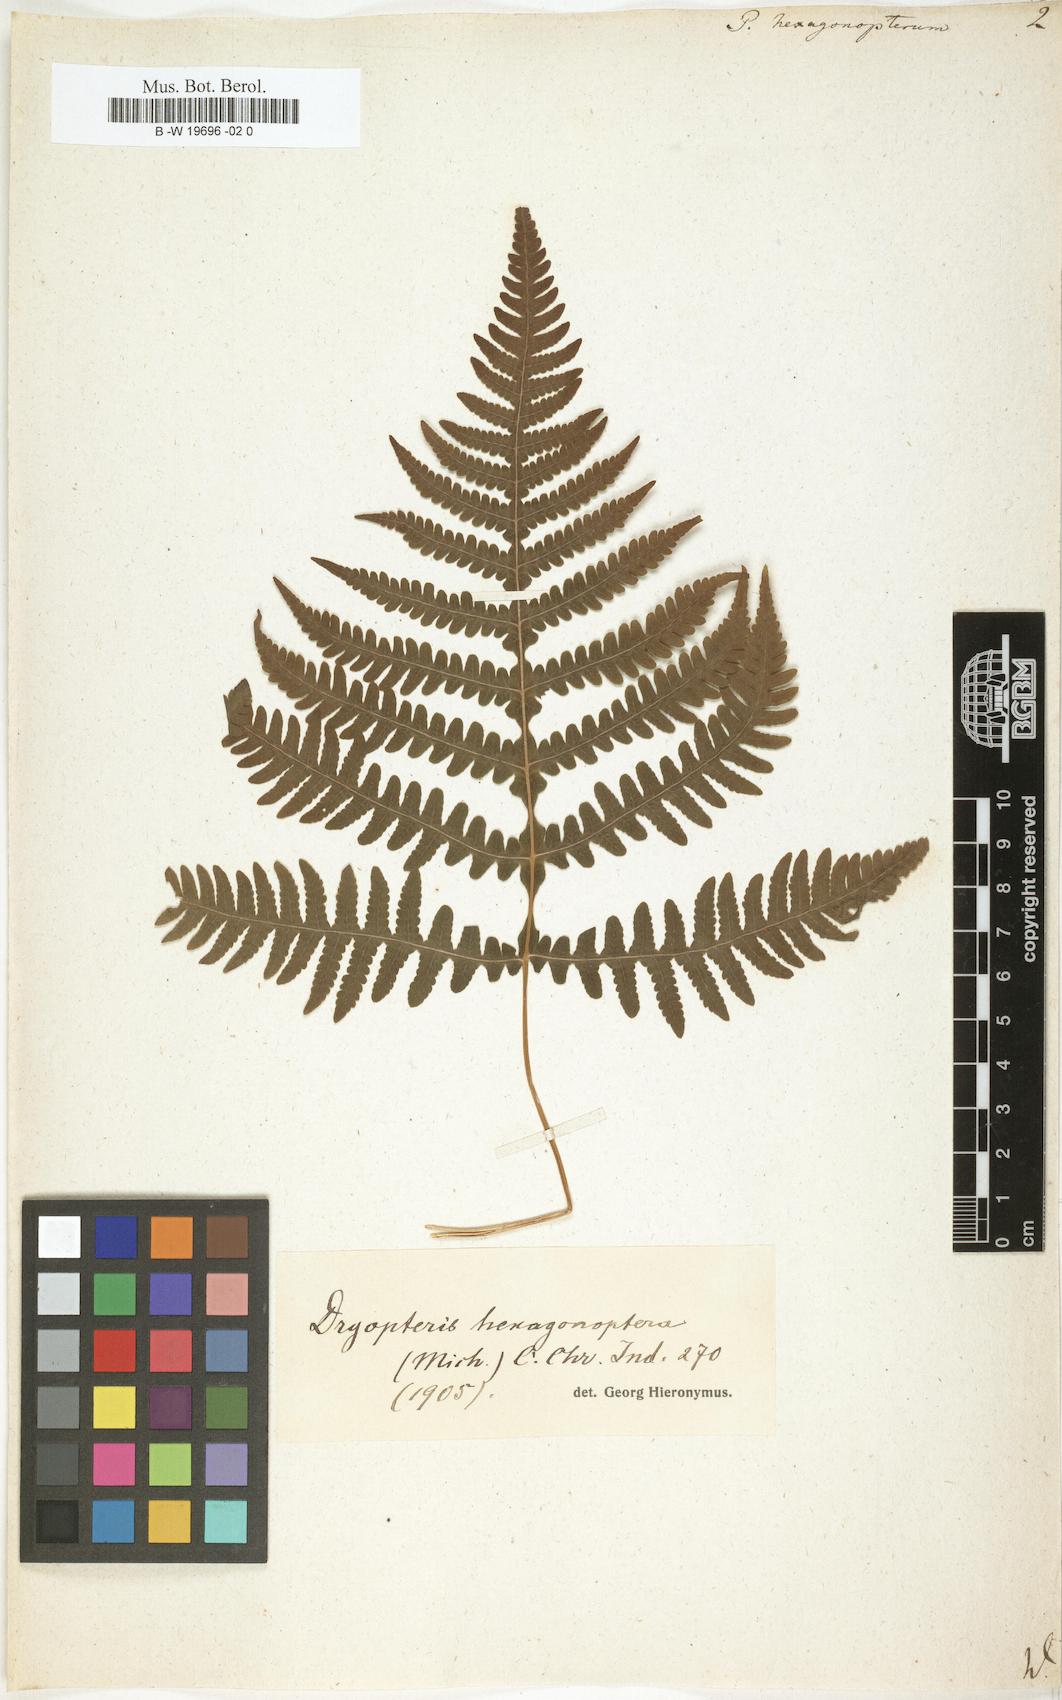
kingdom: Plantae
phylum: Tracheophyta
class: Polypodiopsida
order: Polypodiales
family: Thelypteridaceae
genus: Phegopteris
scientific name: Phegopteris hexagonoptera
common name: Broad beech fern
